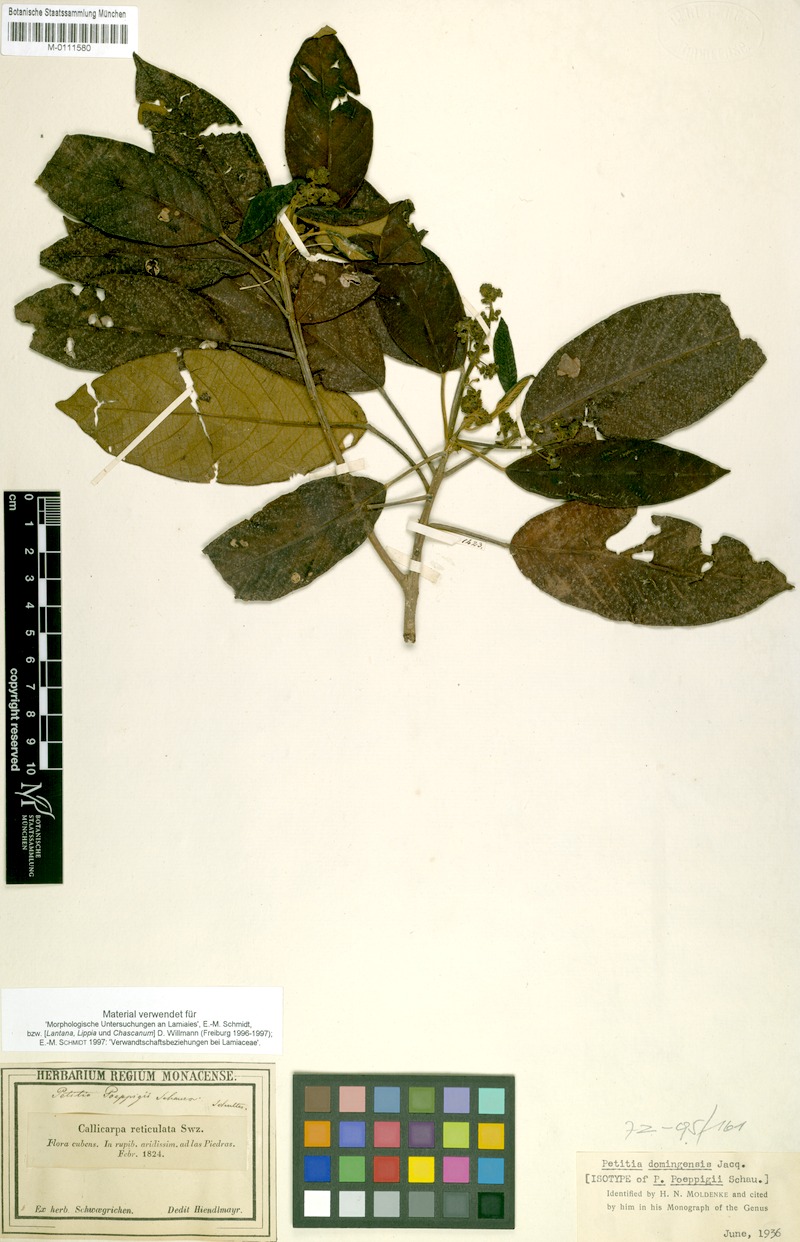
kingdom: Plantae
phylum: Tracheophyta
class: Magnoliopsida
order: Lamiales
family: Lamiaceae
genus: Petitia
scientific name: Petitia domingensis
